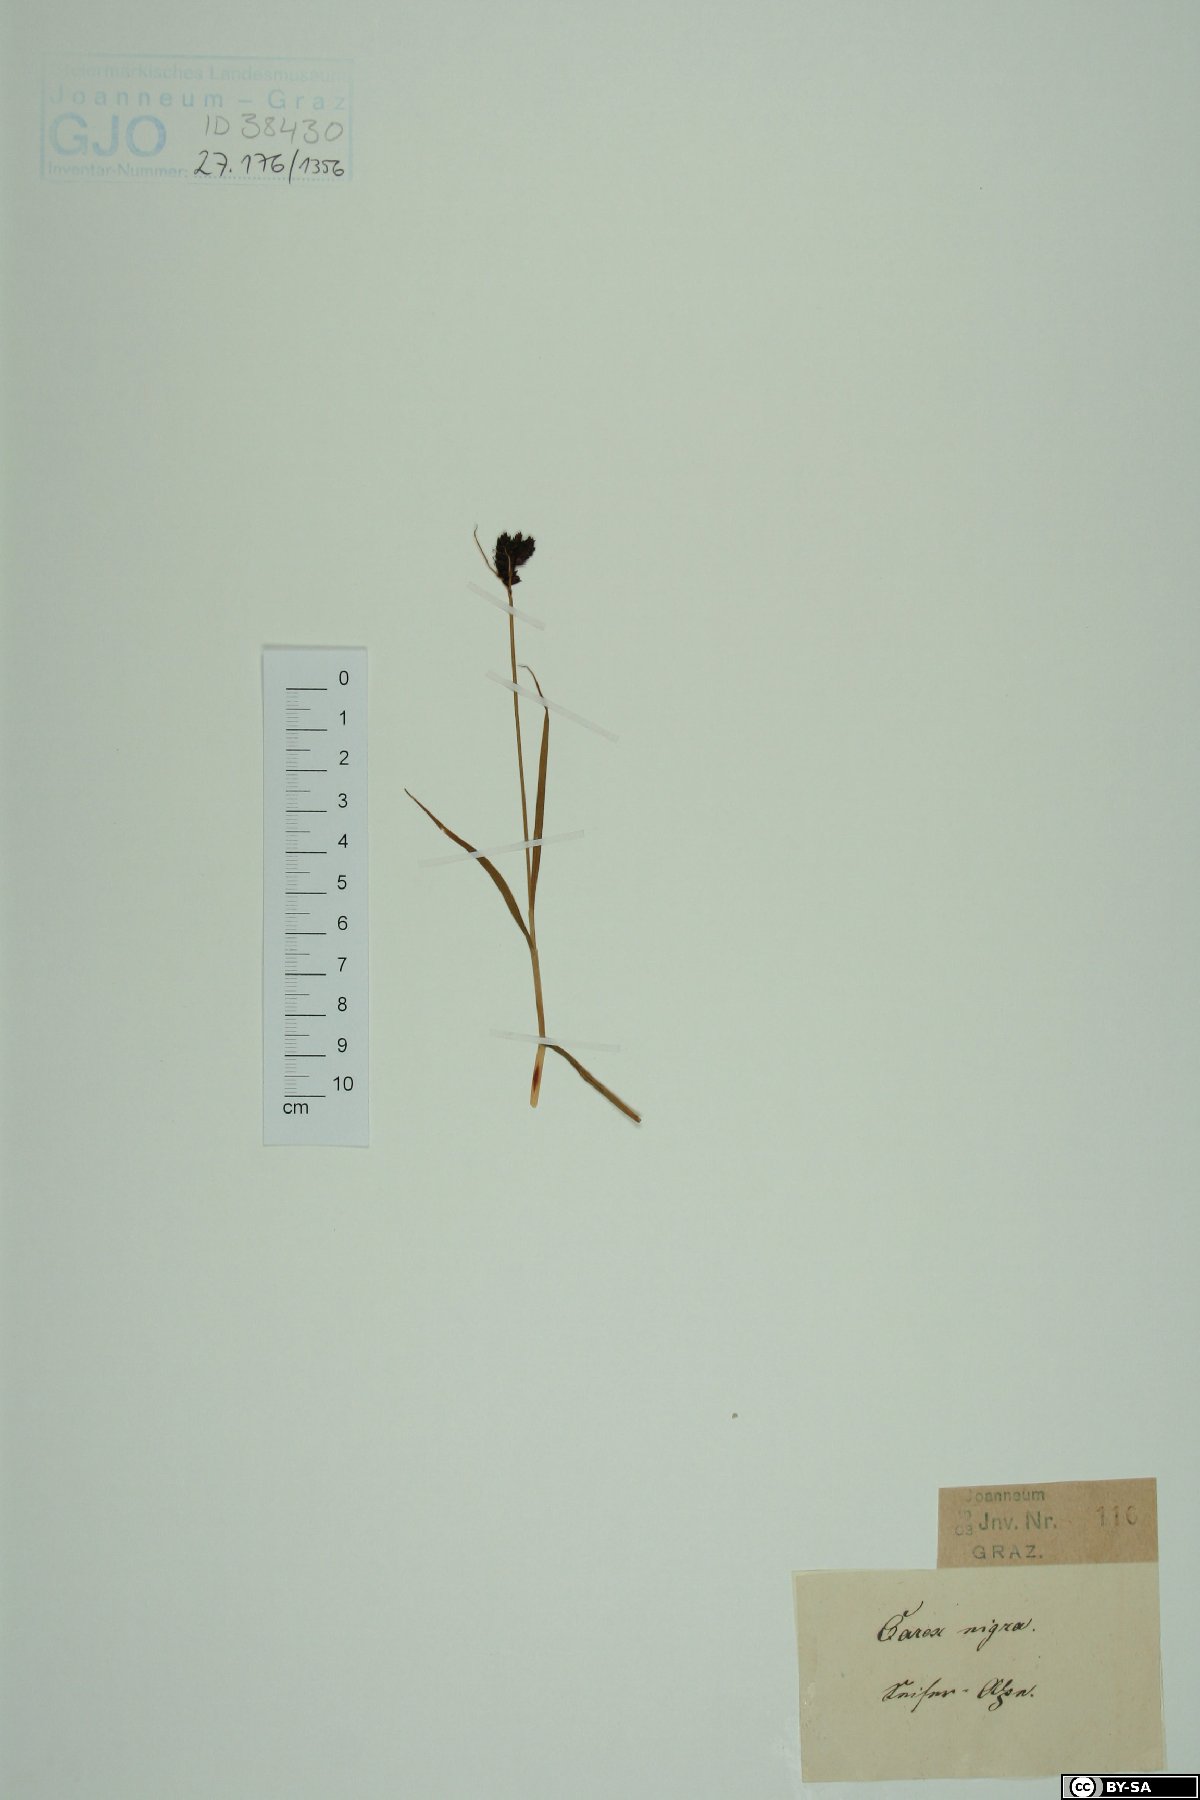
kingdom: Plantae
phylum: Tracheophyta
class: Liliopsida
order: Poales
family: Cyperaceae
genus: Carex
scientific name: Carex nigra
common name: Common sedge
